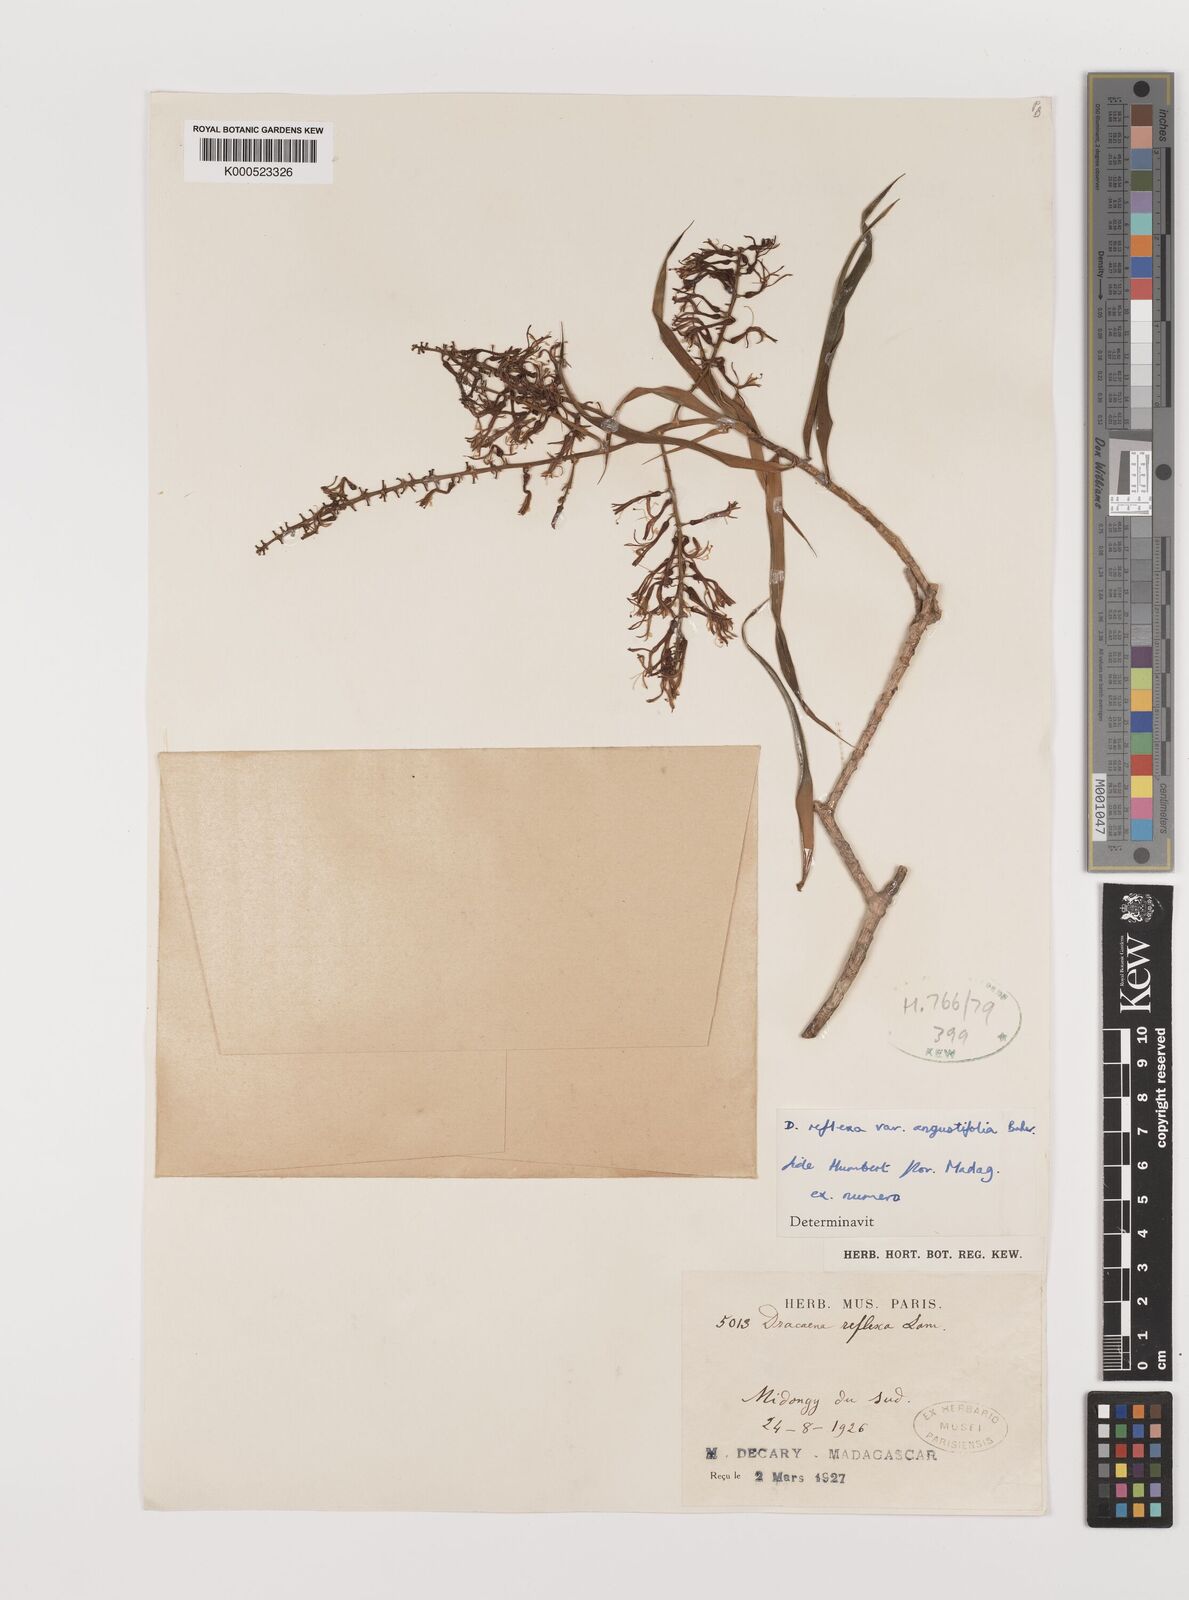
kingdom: Plantae
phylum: Tracheophyta
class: Liliopsida
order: Asparagales
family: Asparagaceae
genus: Dracaena
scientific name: Dracaena reflexa
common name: Song-of-india
